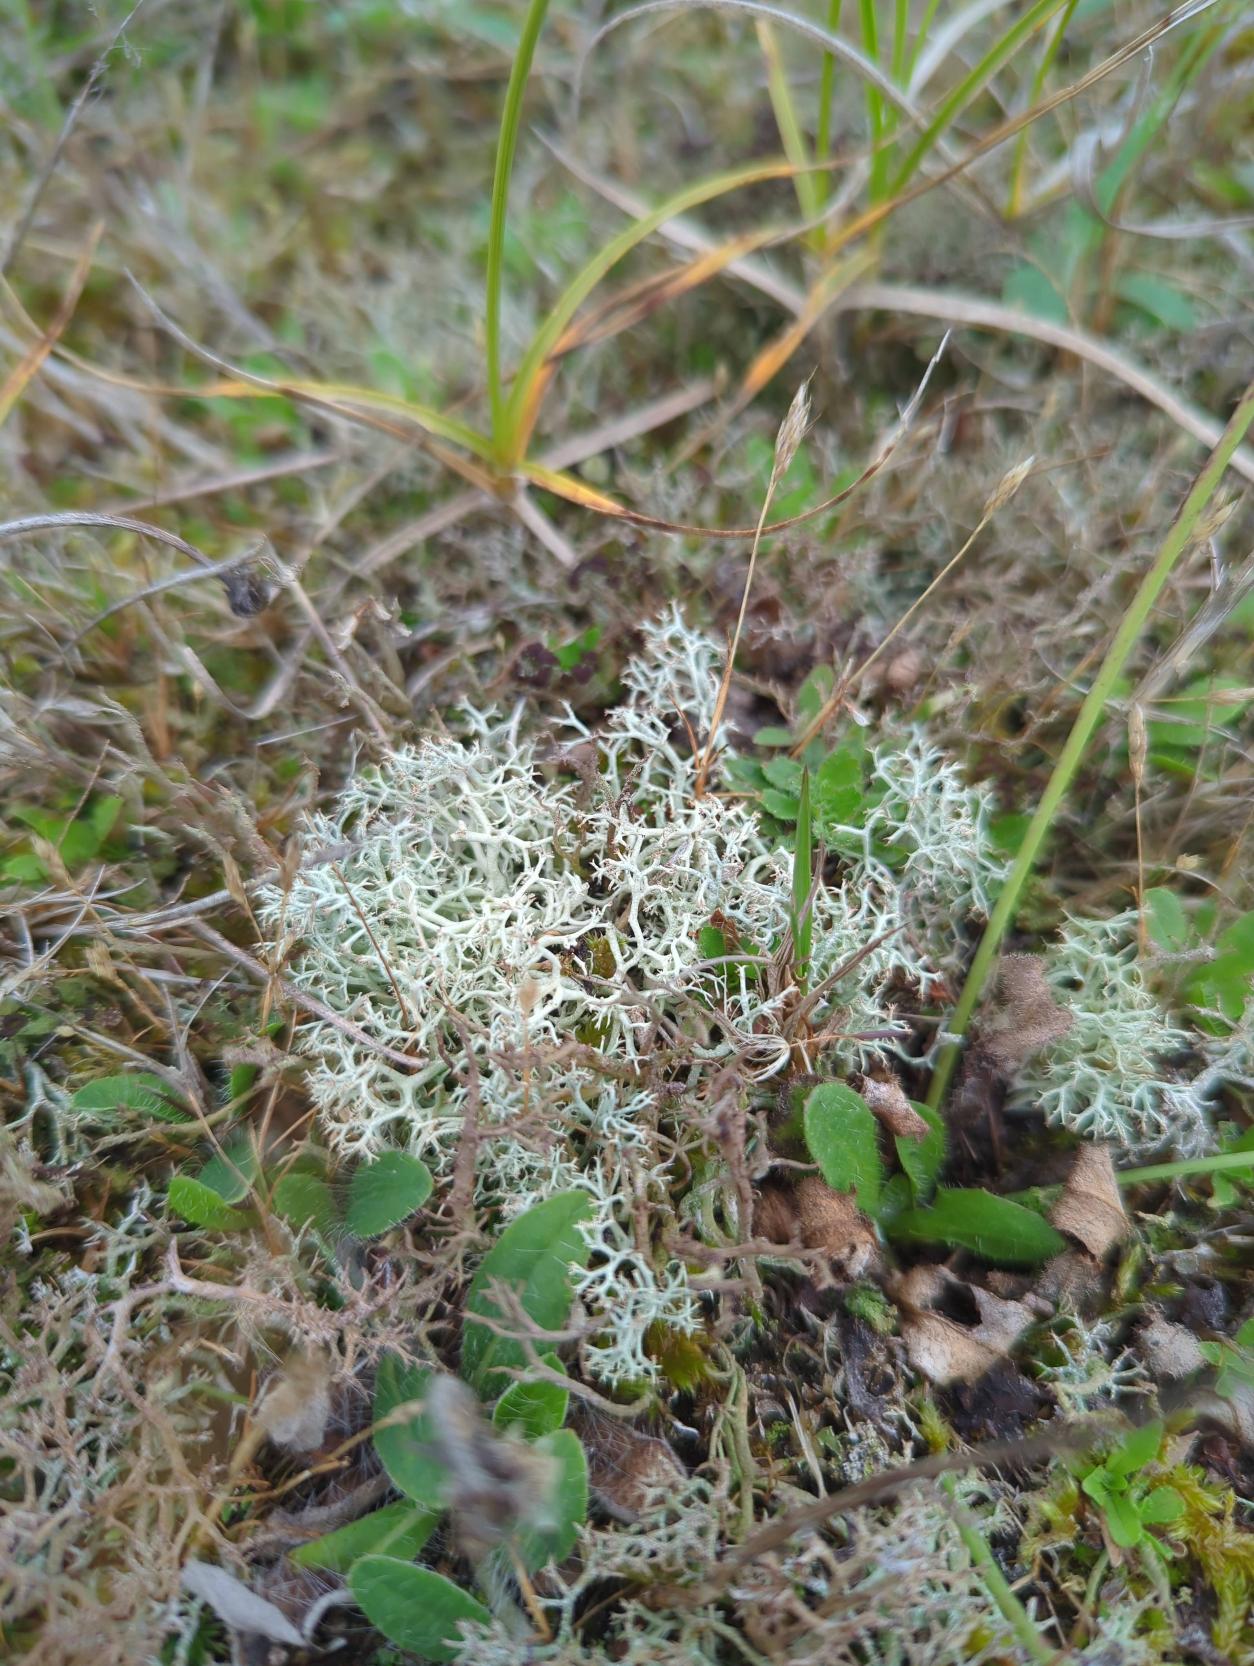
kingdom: Fungi
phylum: Ascomycota
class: Lecanoromycetes
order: Lecanorales
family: Cladoniaceae
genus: Cladonia
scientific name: Cladonia portentosa
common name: Hede-rensdyrlav
